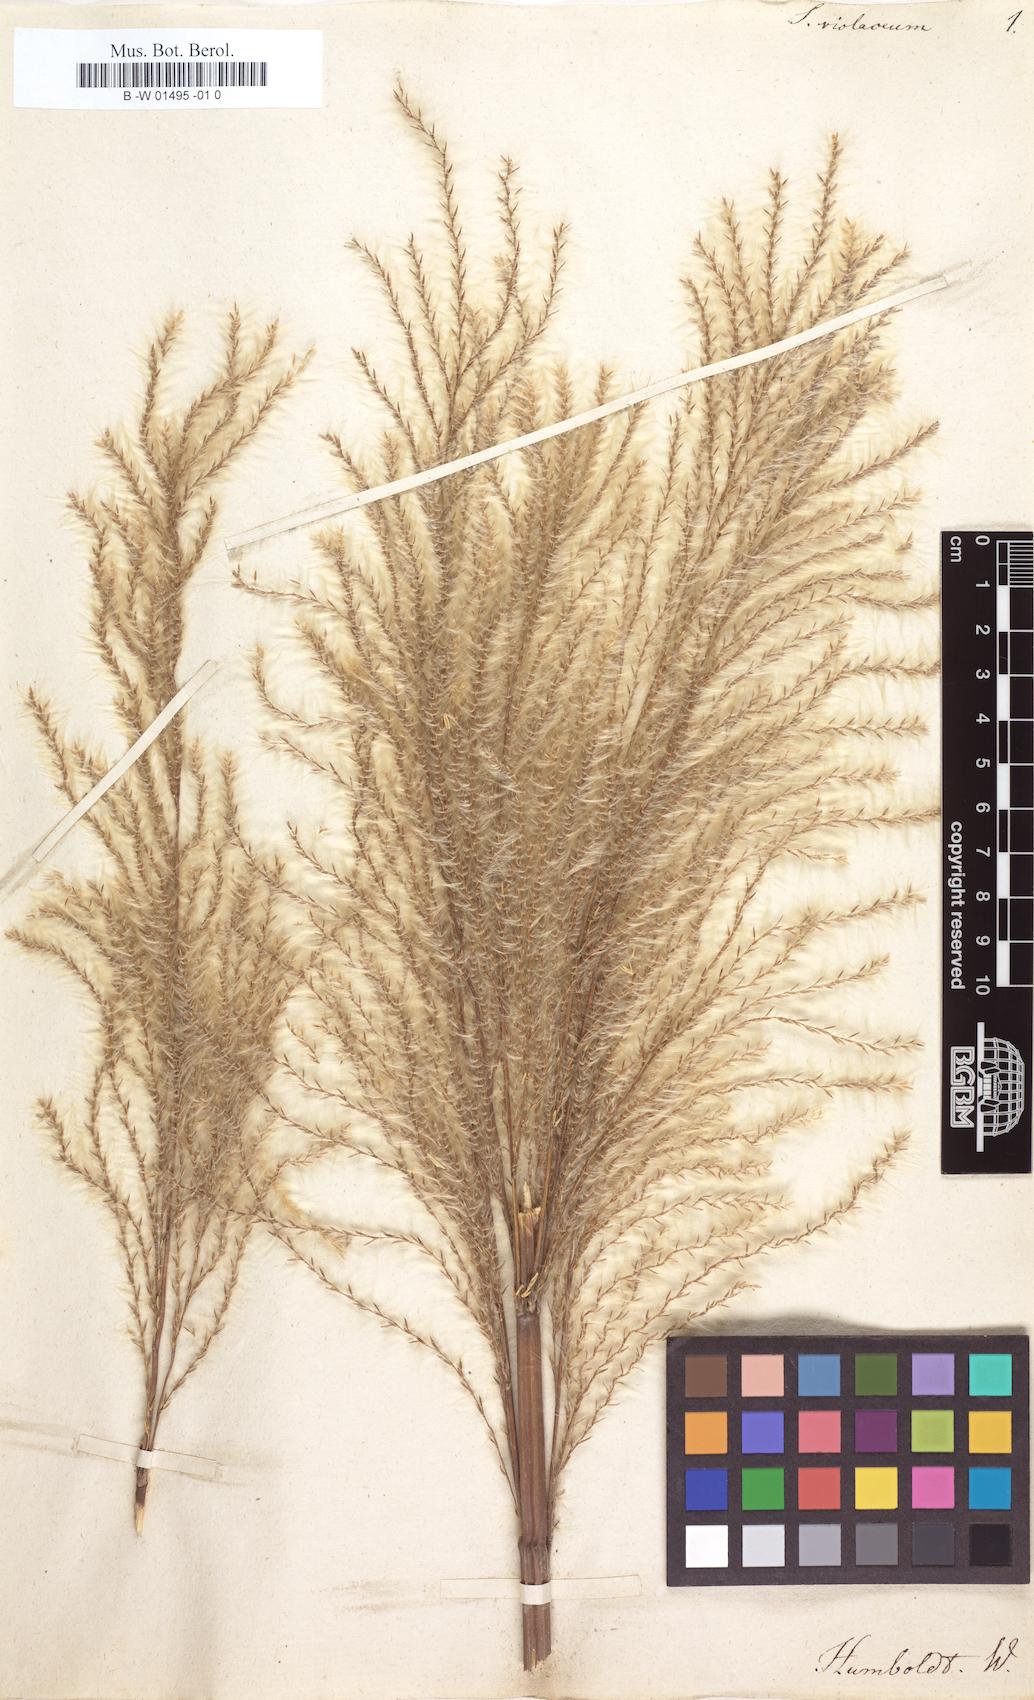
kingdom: Plantae
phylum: Tracheophyta
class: Liliopsida
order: Poales
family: Poaceae
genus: Saccharum
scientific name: Saccharum officinarum
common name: Sugarcane
